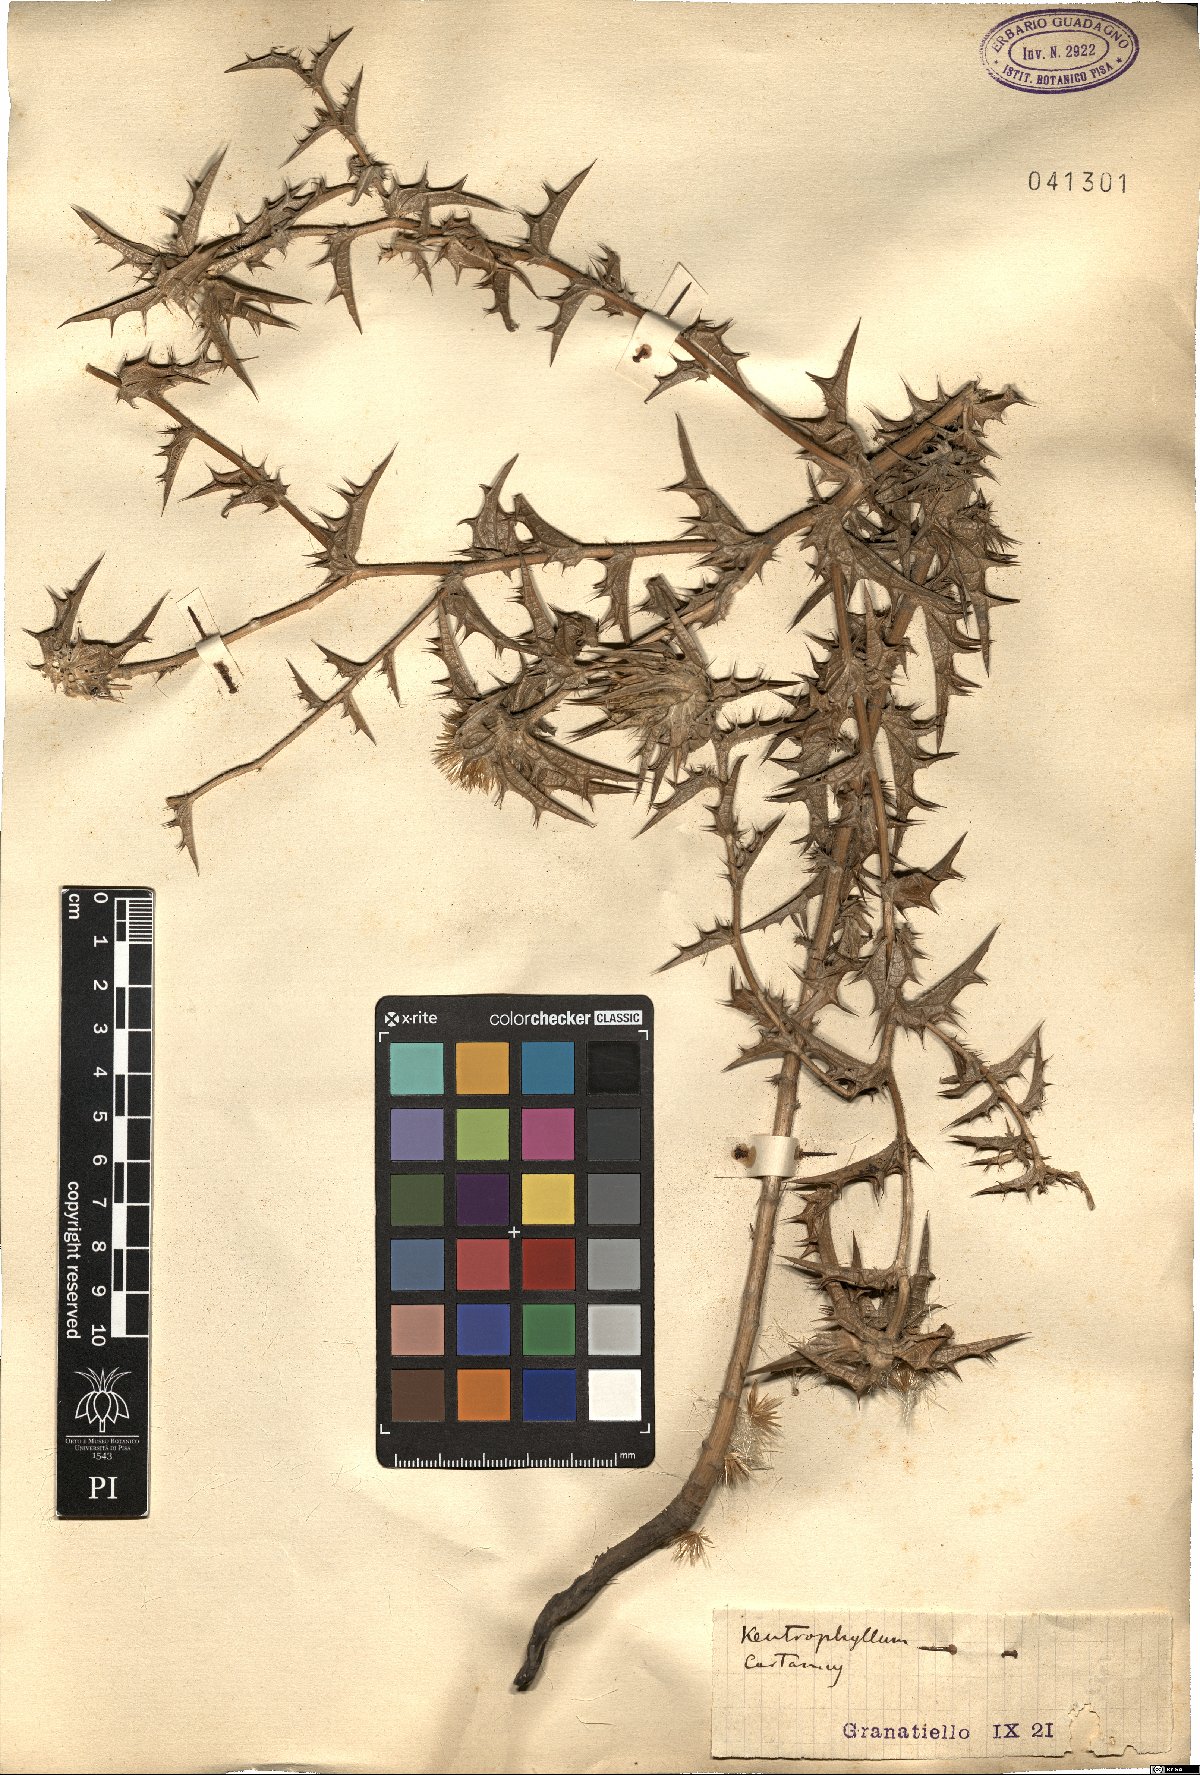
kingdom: Plantae
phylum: Tracheophyta
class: Magnoliopsida
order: Asterales
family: Asteraceae
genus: Kentrophyllum
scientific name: Kentrophyllum
